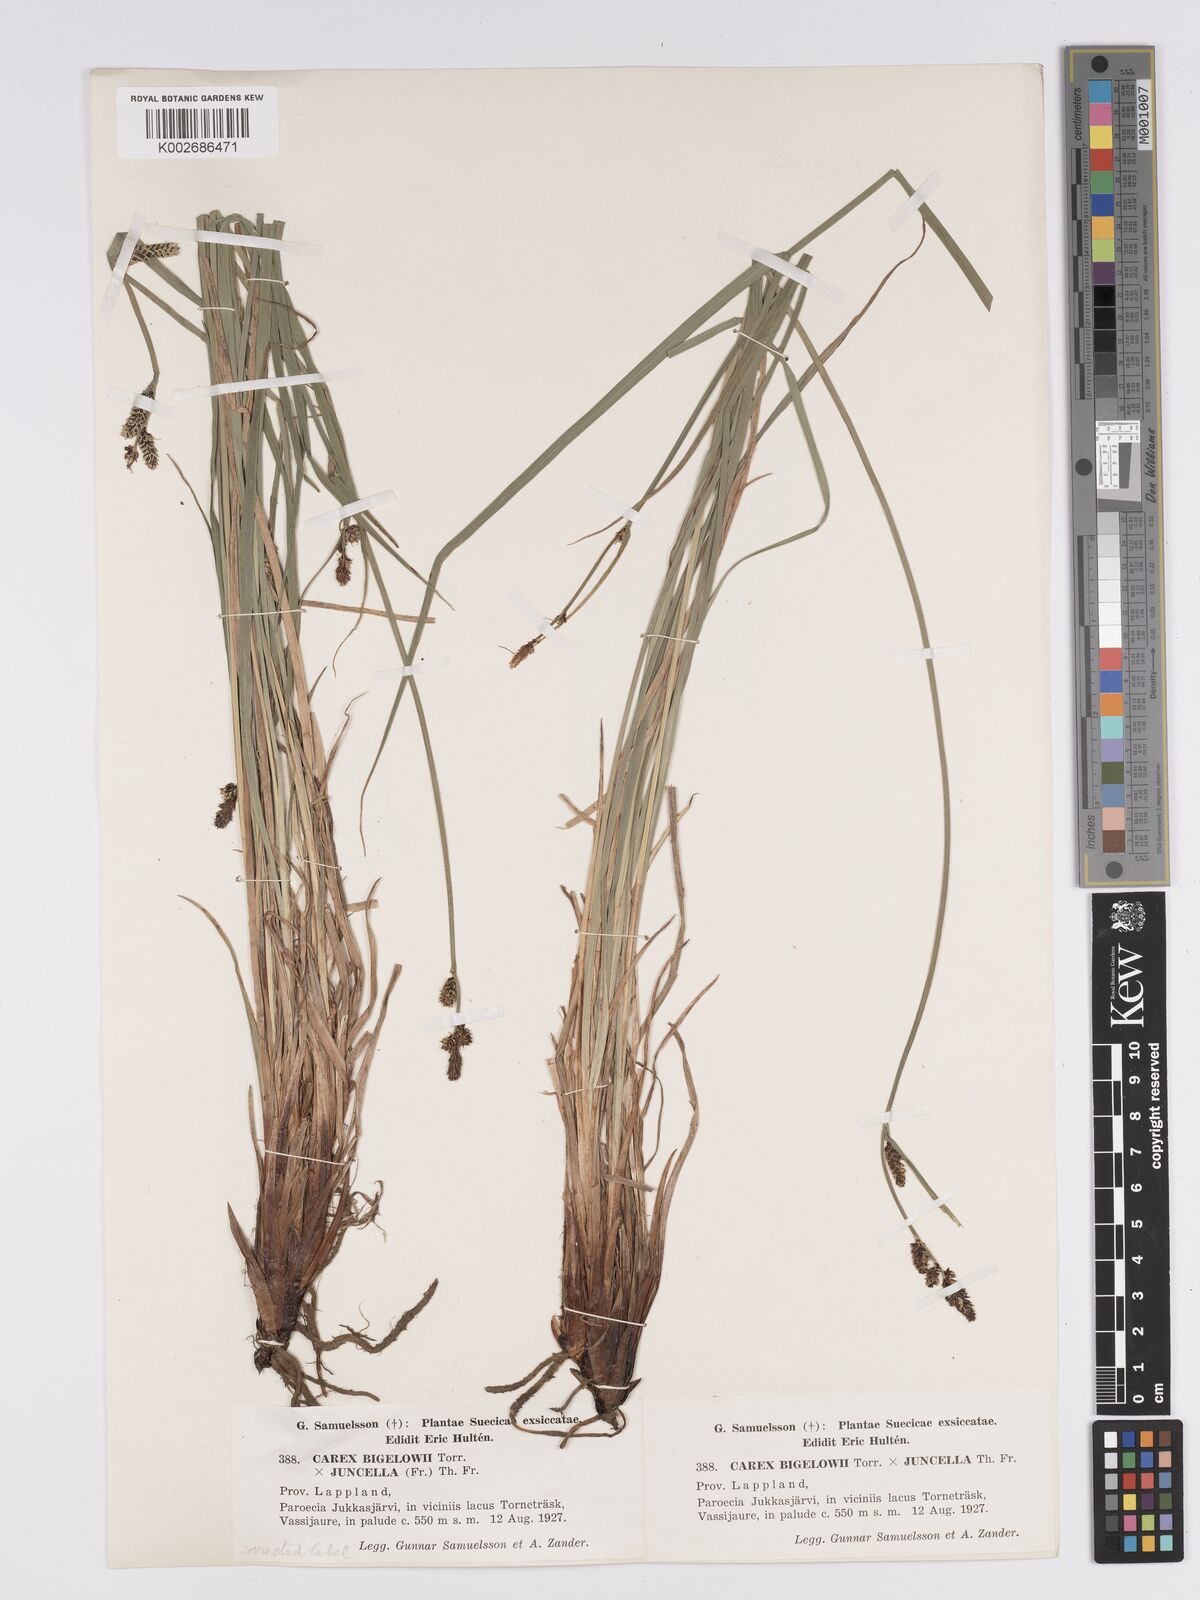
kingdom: Plantae
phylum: Tracheophyta
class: Liliopsida
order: Poales
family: Cyperaceae
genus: Carex
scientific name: Carex bigelowii
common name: Stiff sedge
